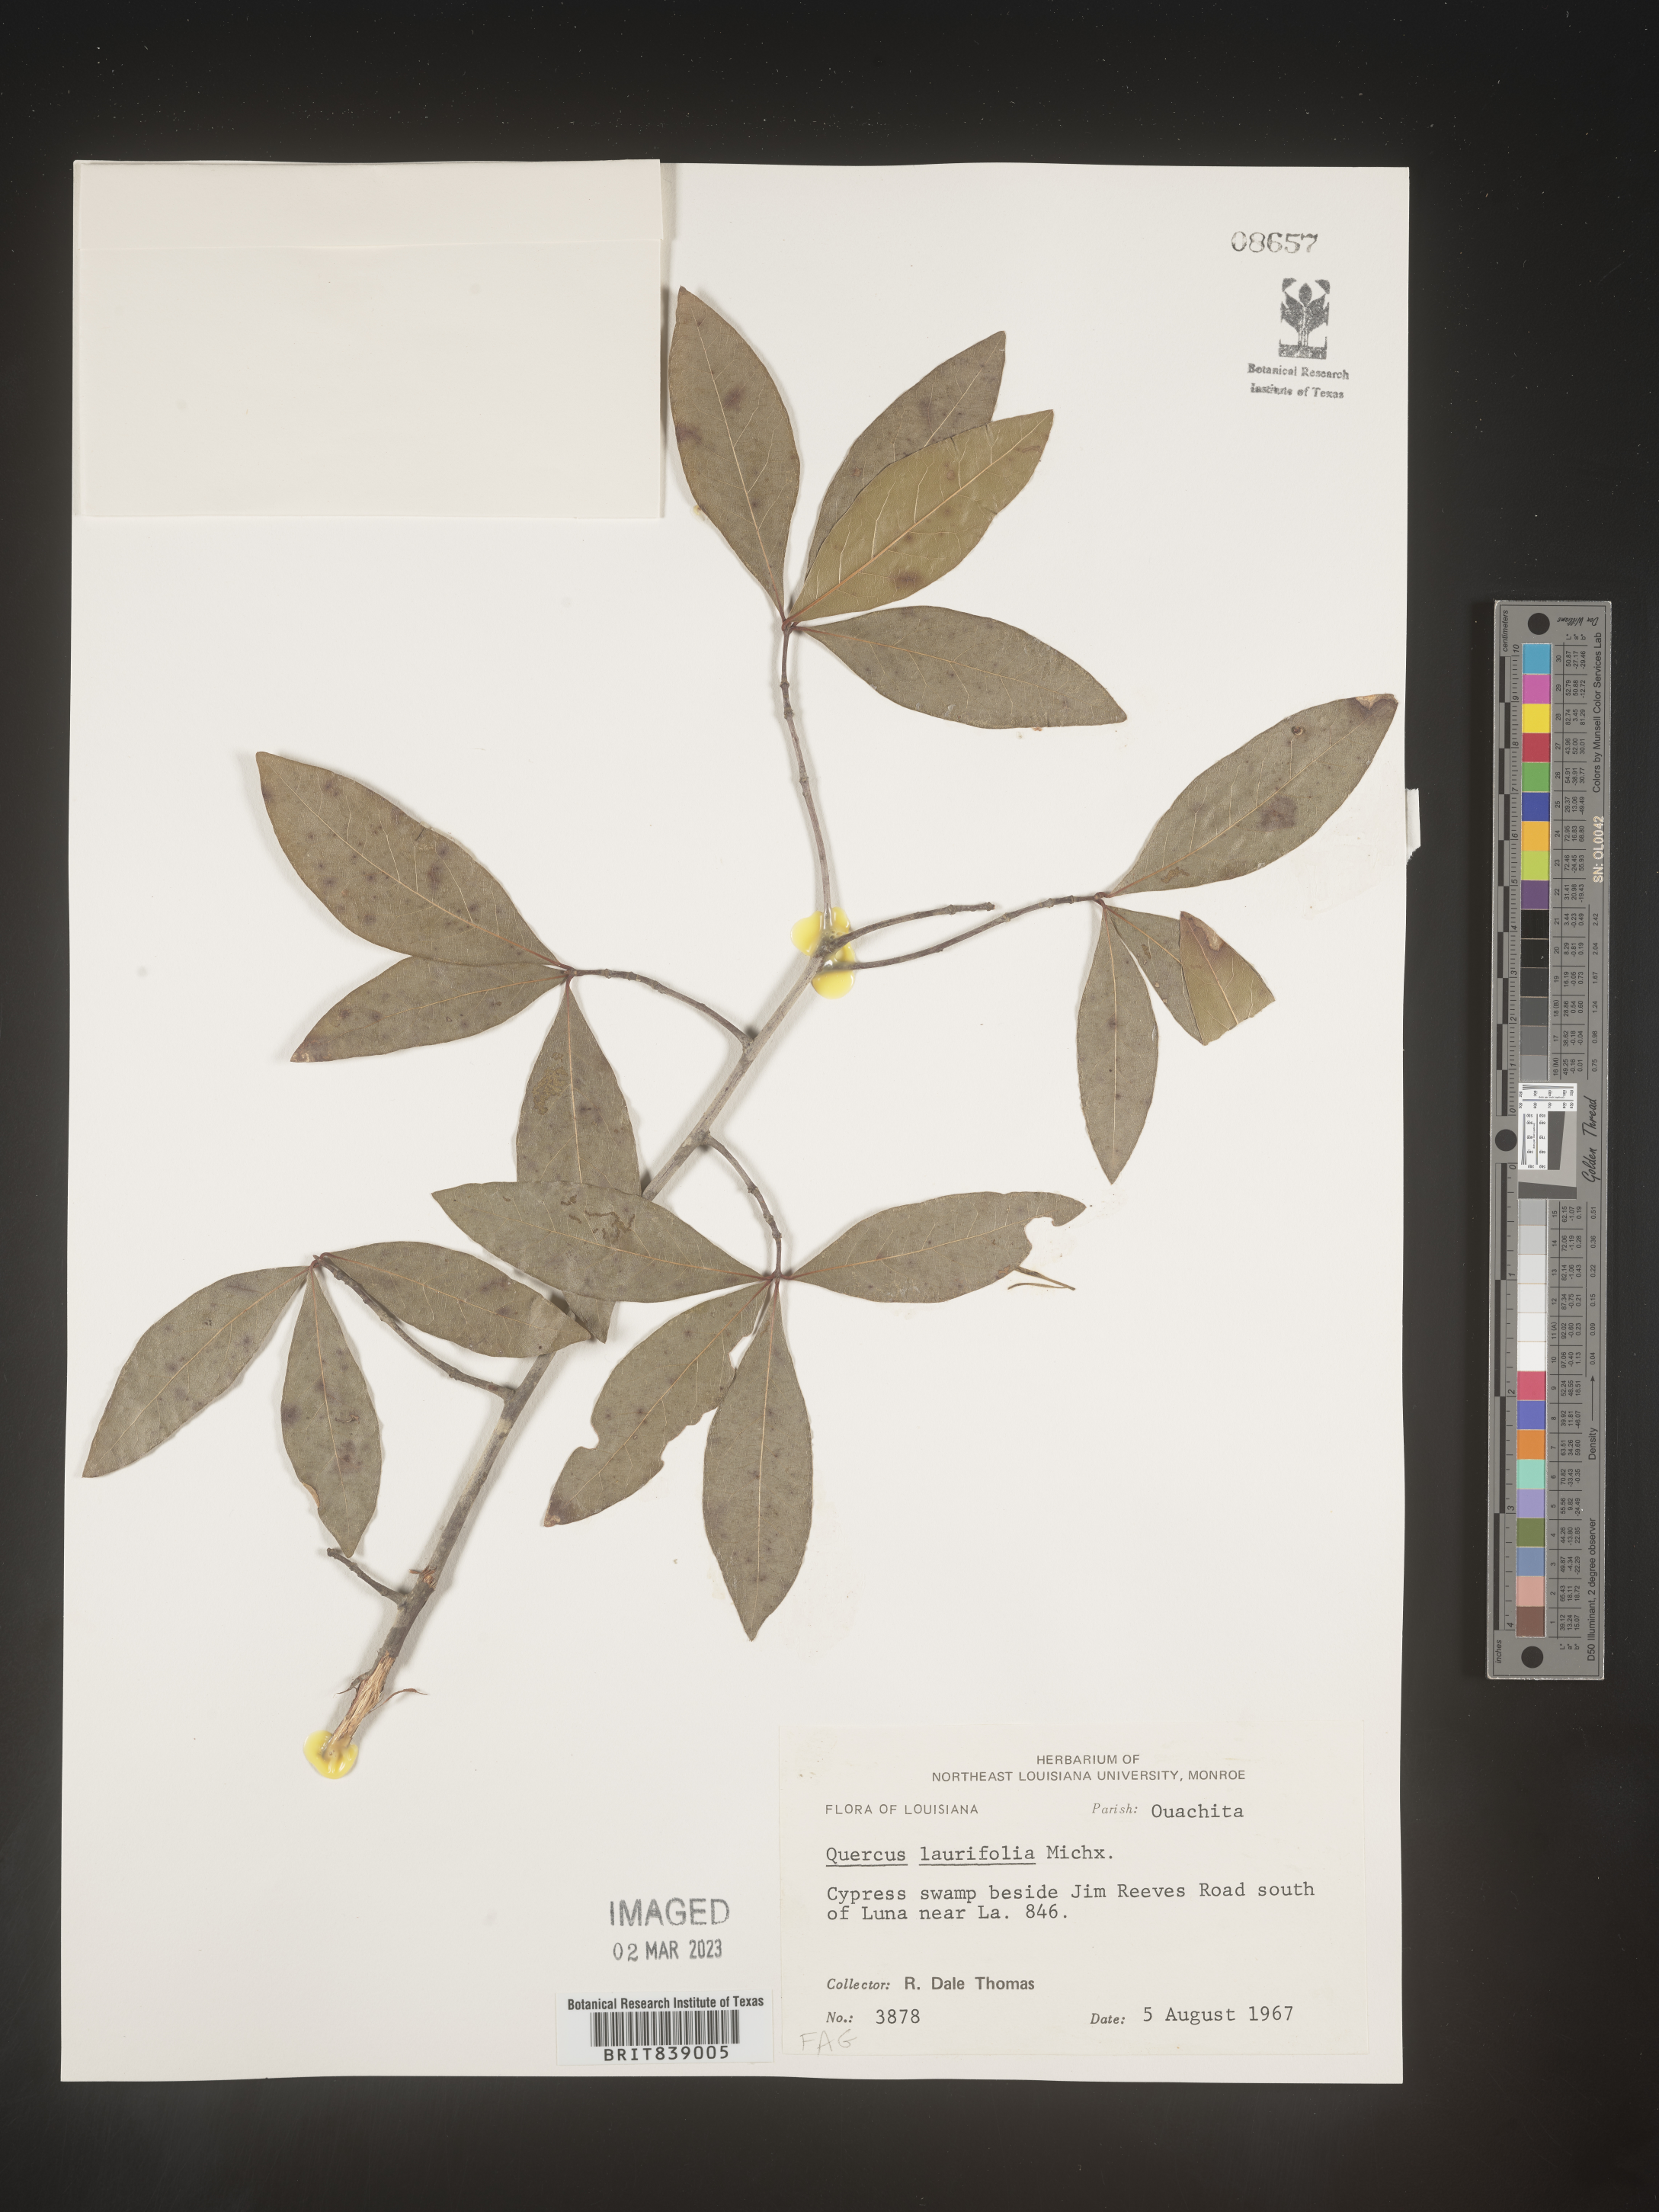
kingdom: Plantae
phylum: Tracheophyta
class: Magnoliopsida
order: Fagales
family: Fagaceae
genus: Quercus
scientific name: Quercus laurifolia
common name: Swamp laurel oak
